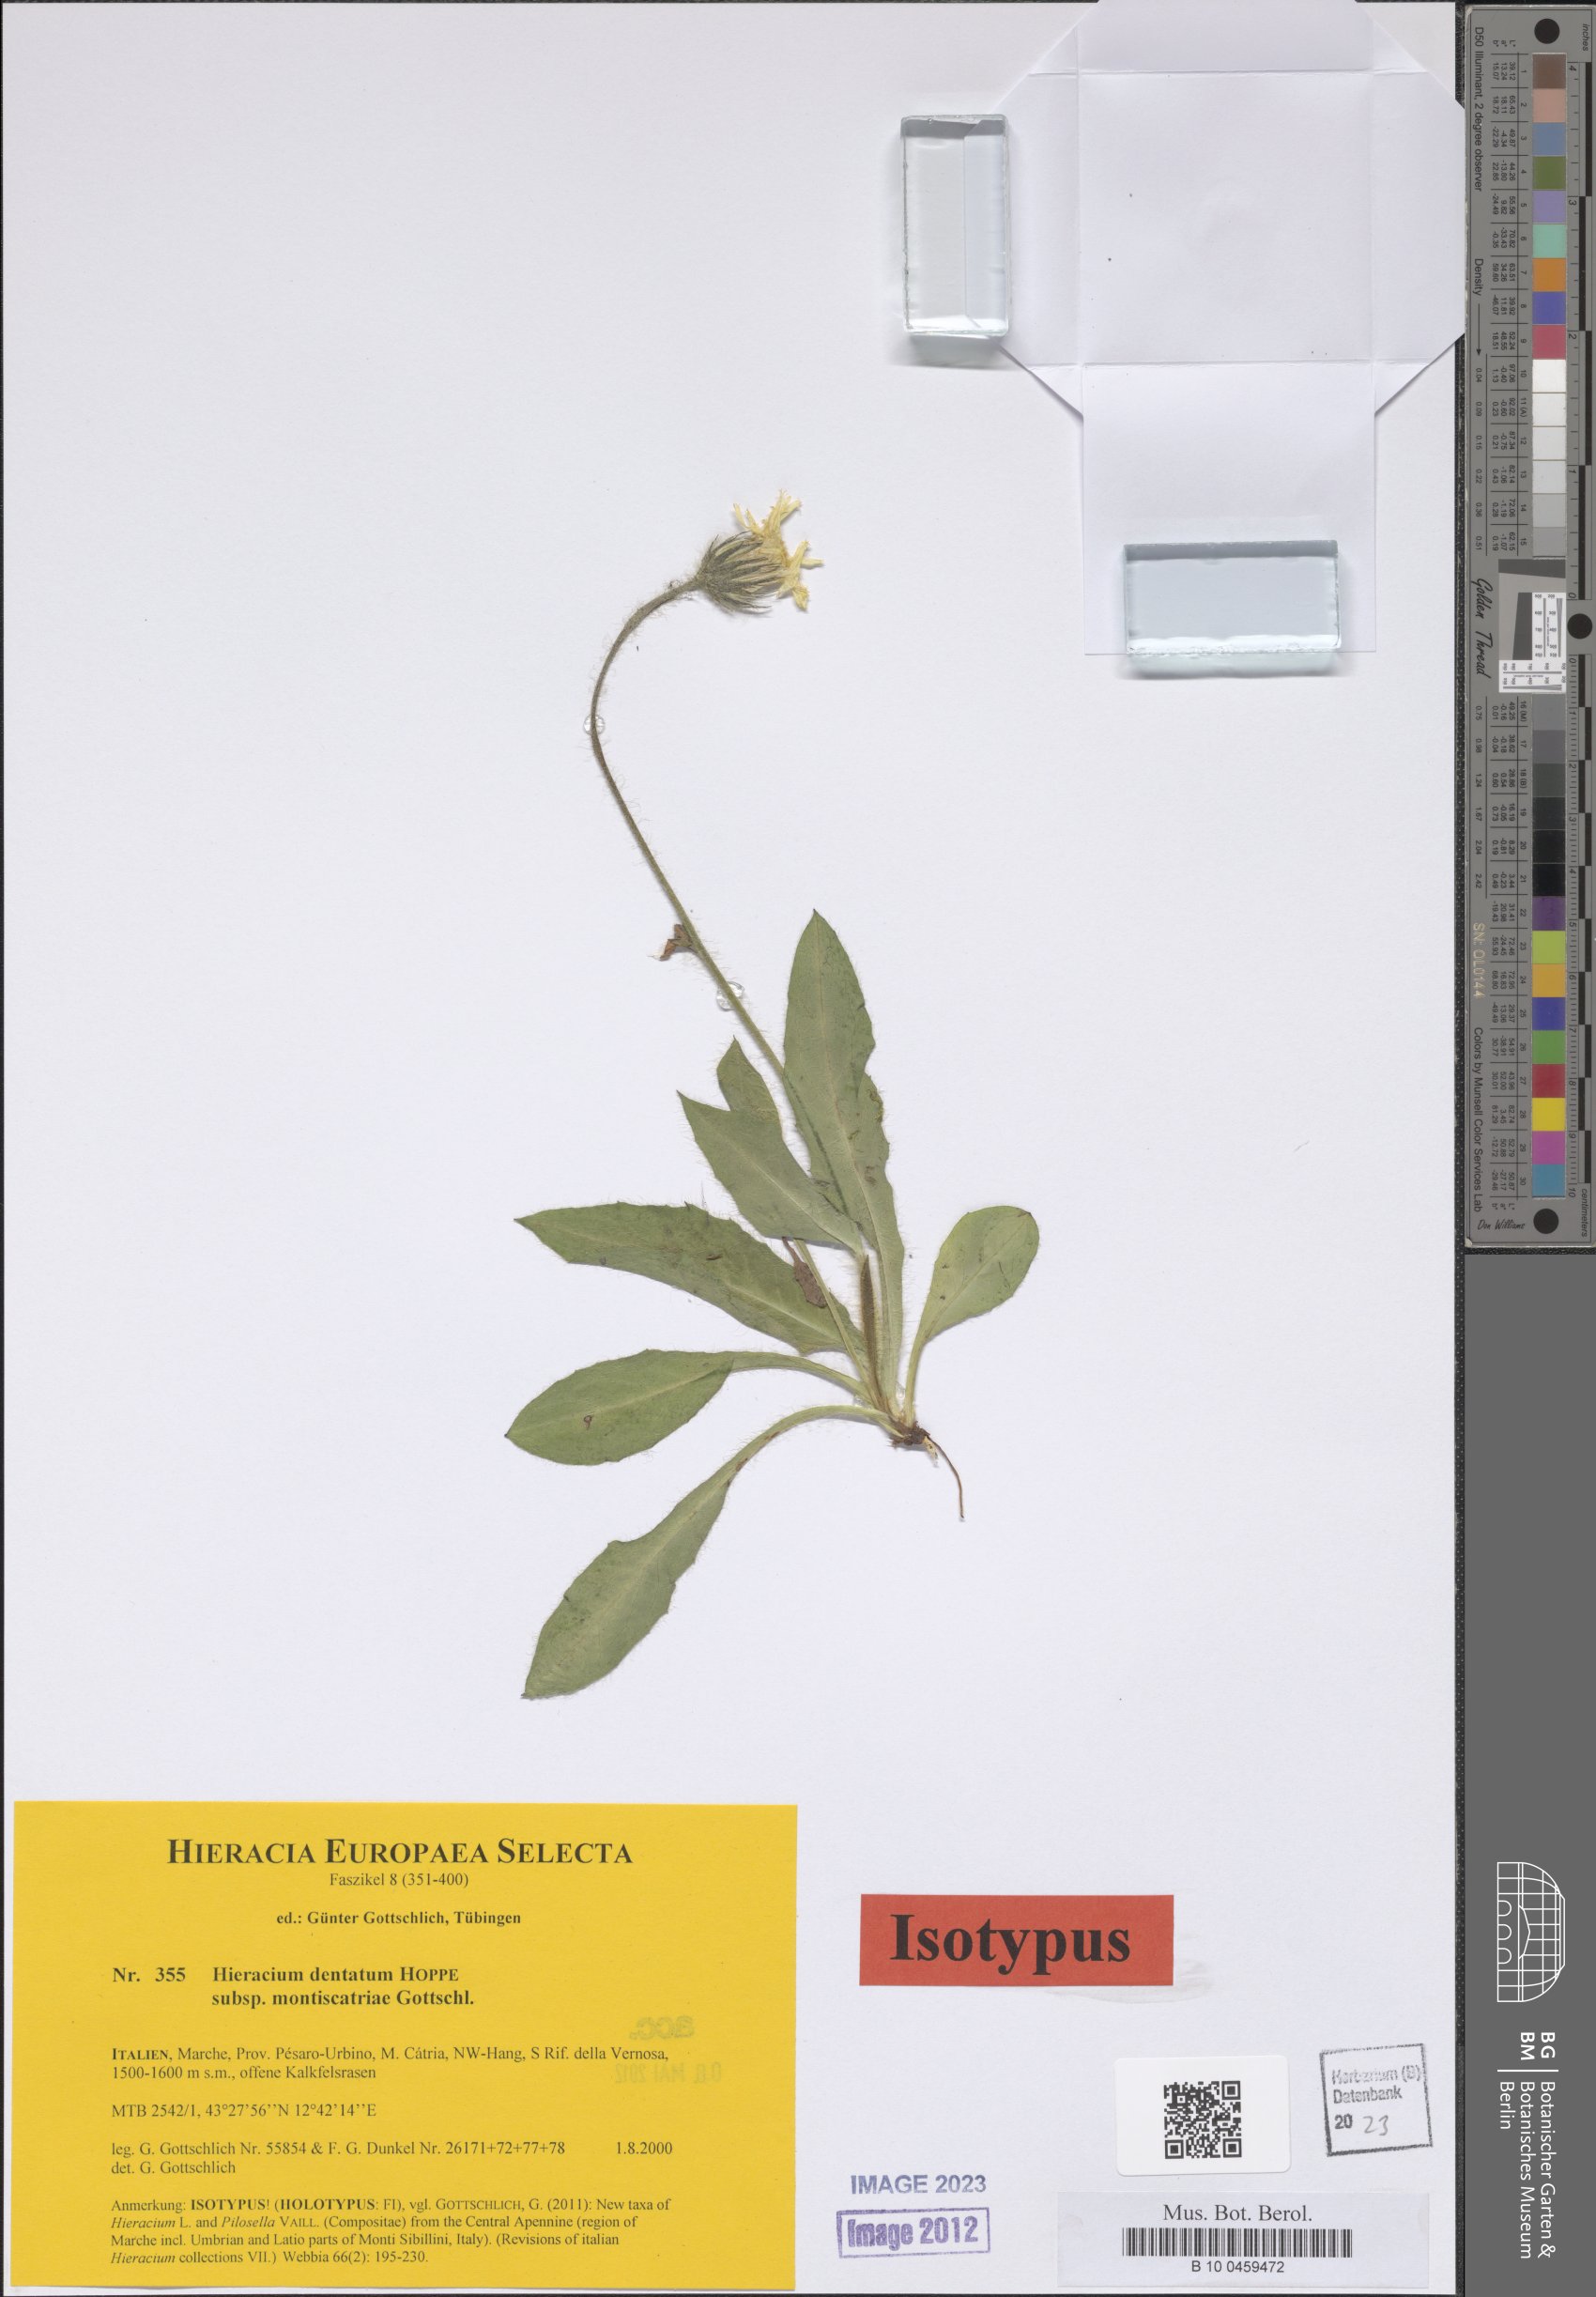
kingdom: Plantae
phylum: Tracheophyta
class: Magnoliopsida
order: Asterales
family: Asteraceae
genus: Hieracium
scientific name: Hieracium dentatum
